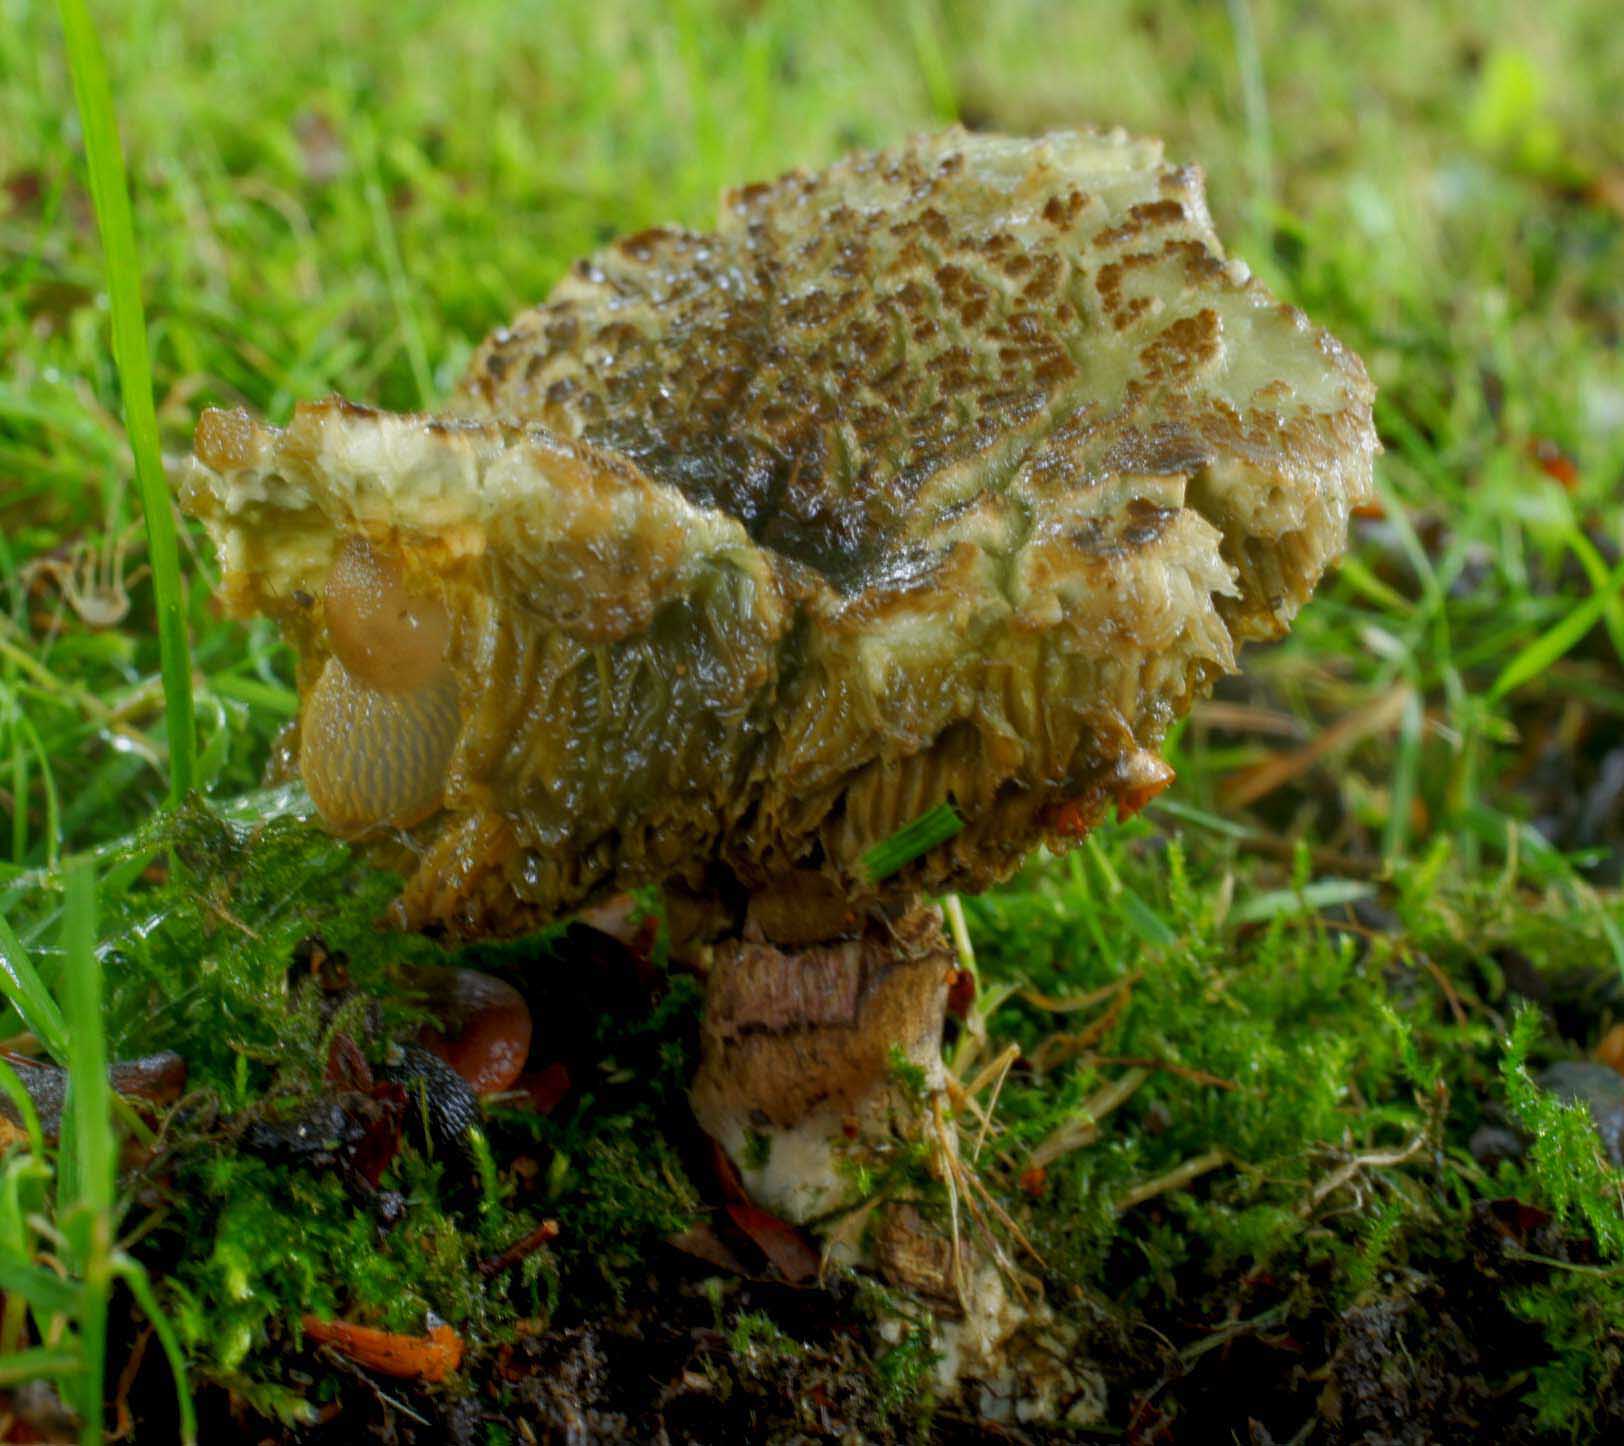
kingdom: Fungi
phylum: Basidiomycota
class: Agaricomycetes
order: Boletales
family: Boletaceae
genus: Xerocomellus
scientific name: Xerocomellus porosporus
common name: hvidsprukken rørhat
